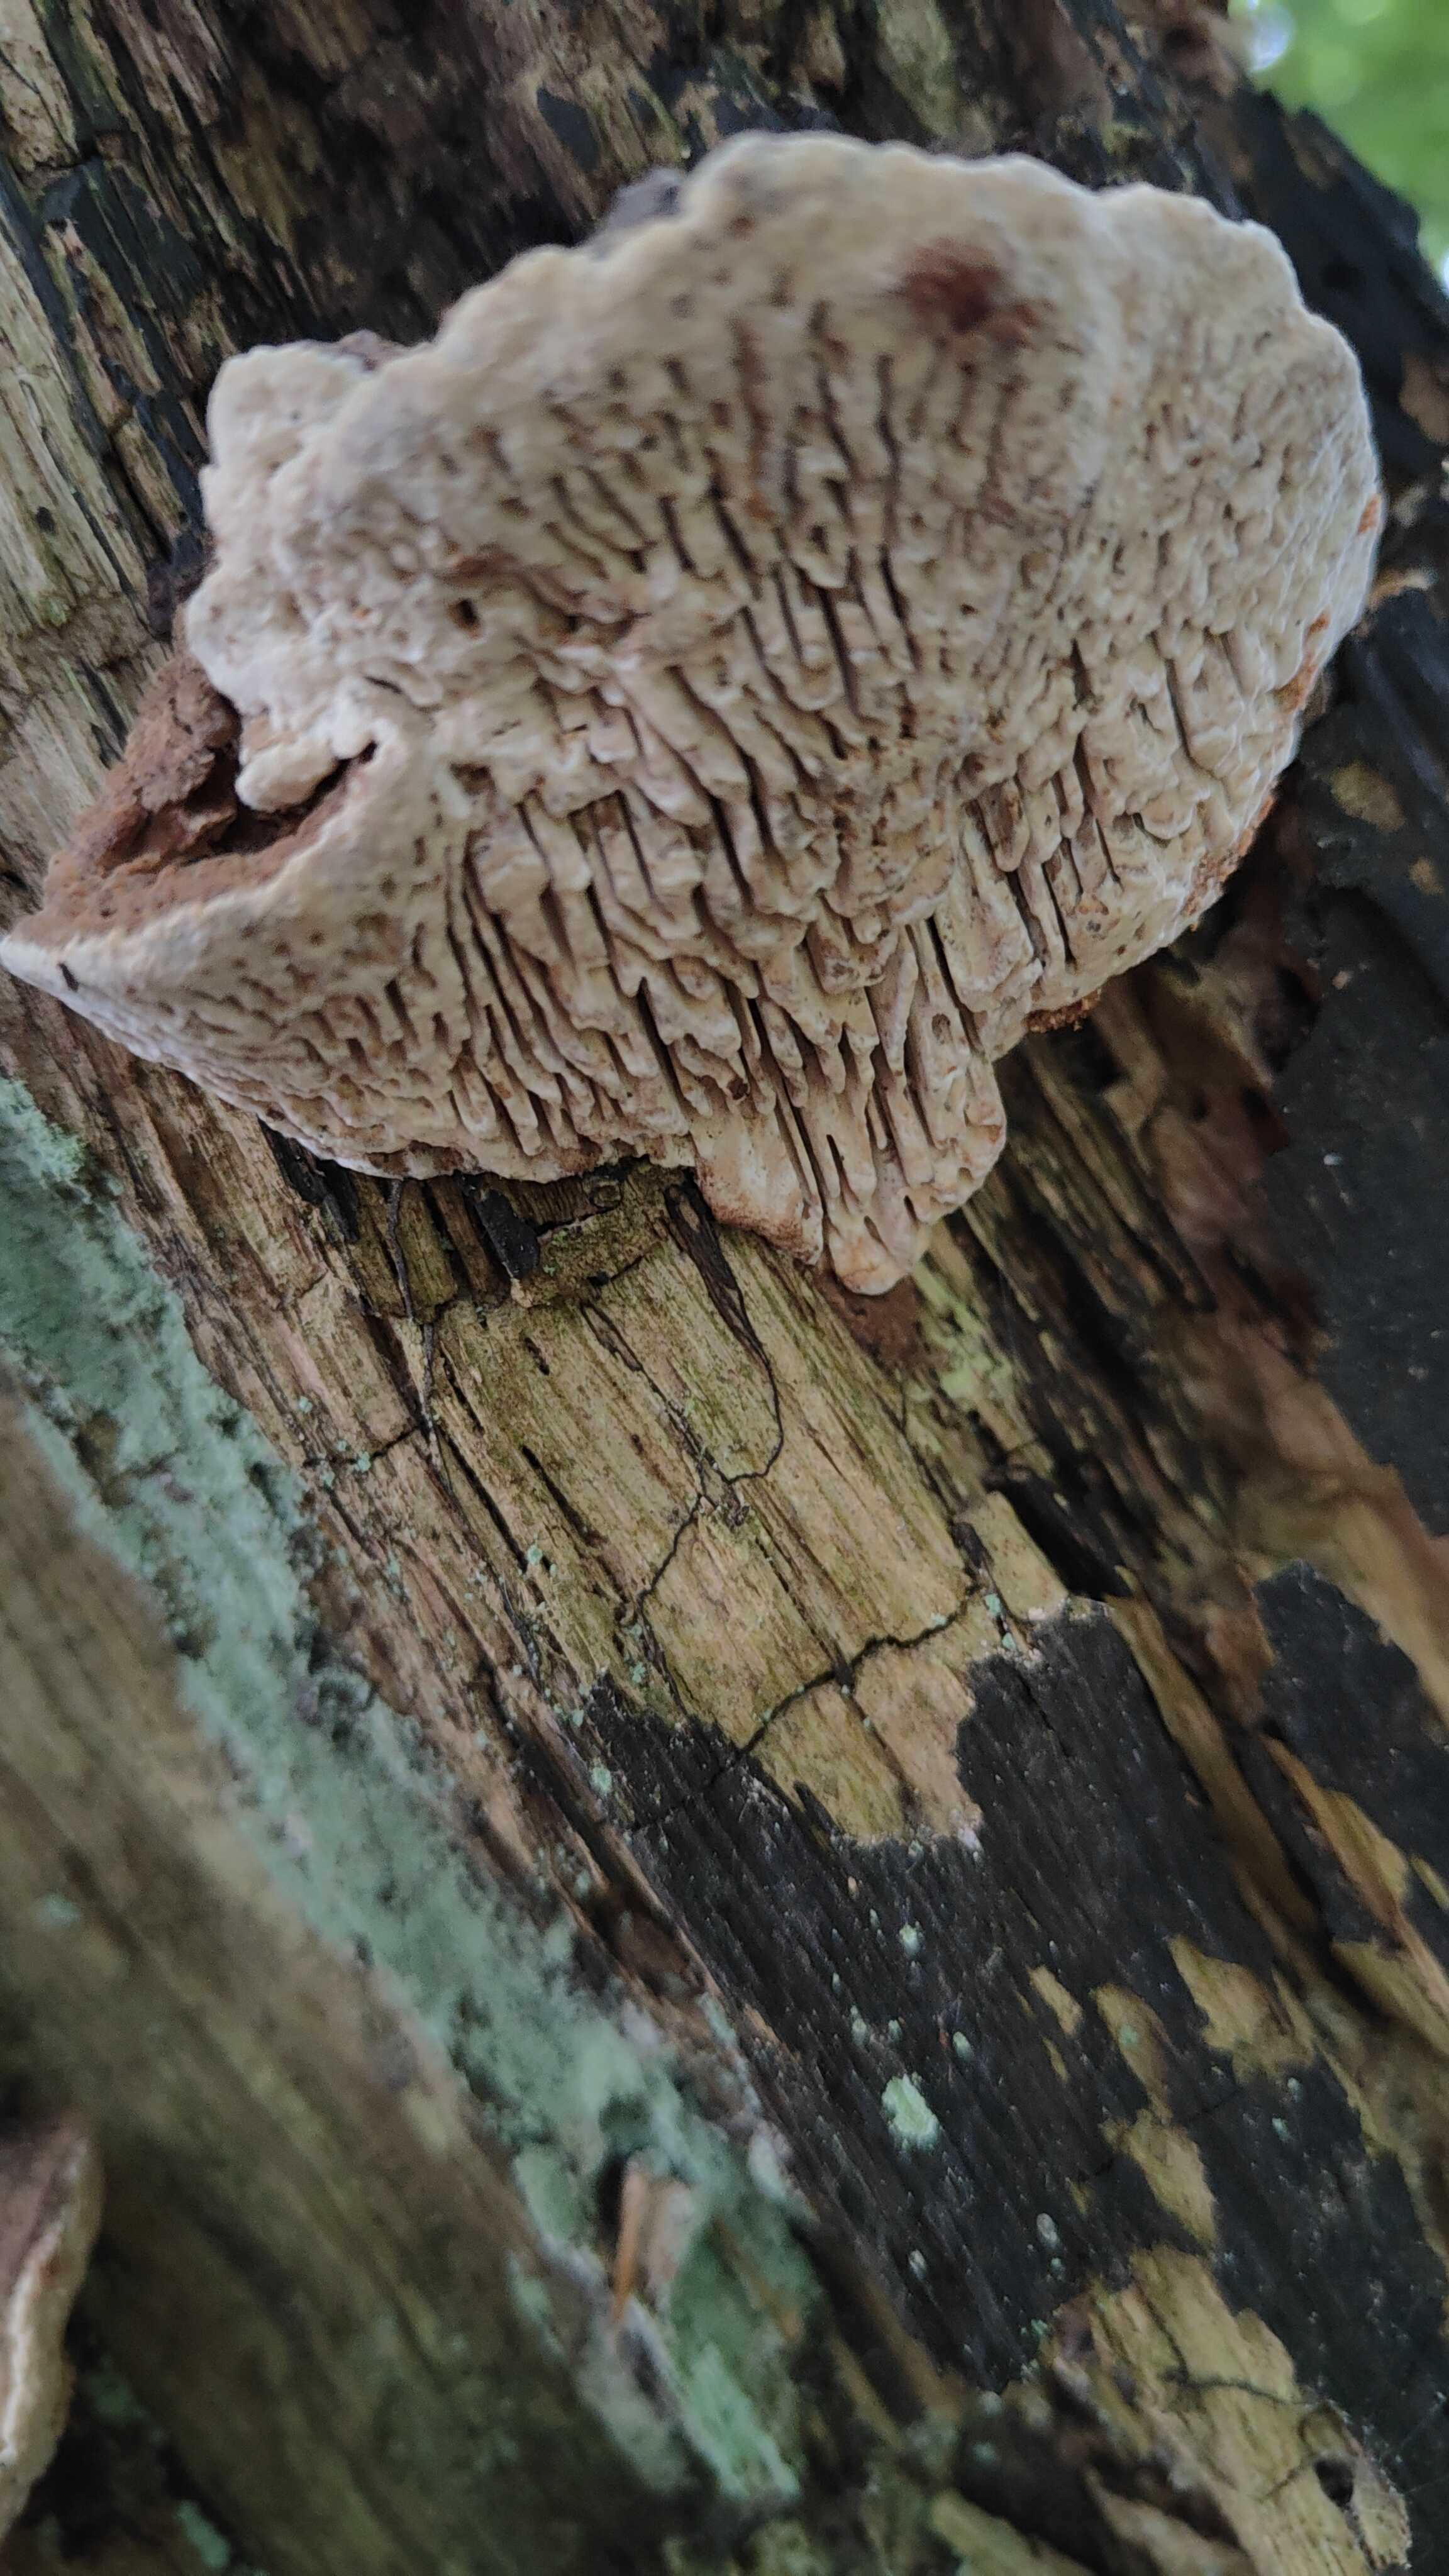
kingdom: Fungi
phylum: Basidiomycota
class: Agaricomycetes
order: Polyporales
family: Fomitopsidaceae
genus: Daedalea
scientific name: Daedalea quercina
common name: ege-labyrintsvamp
